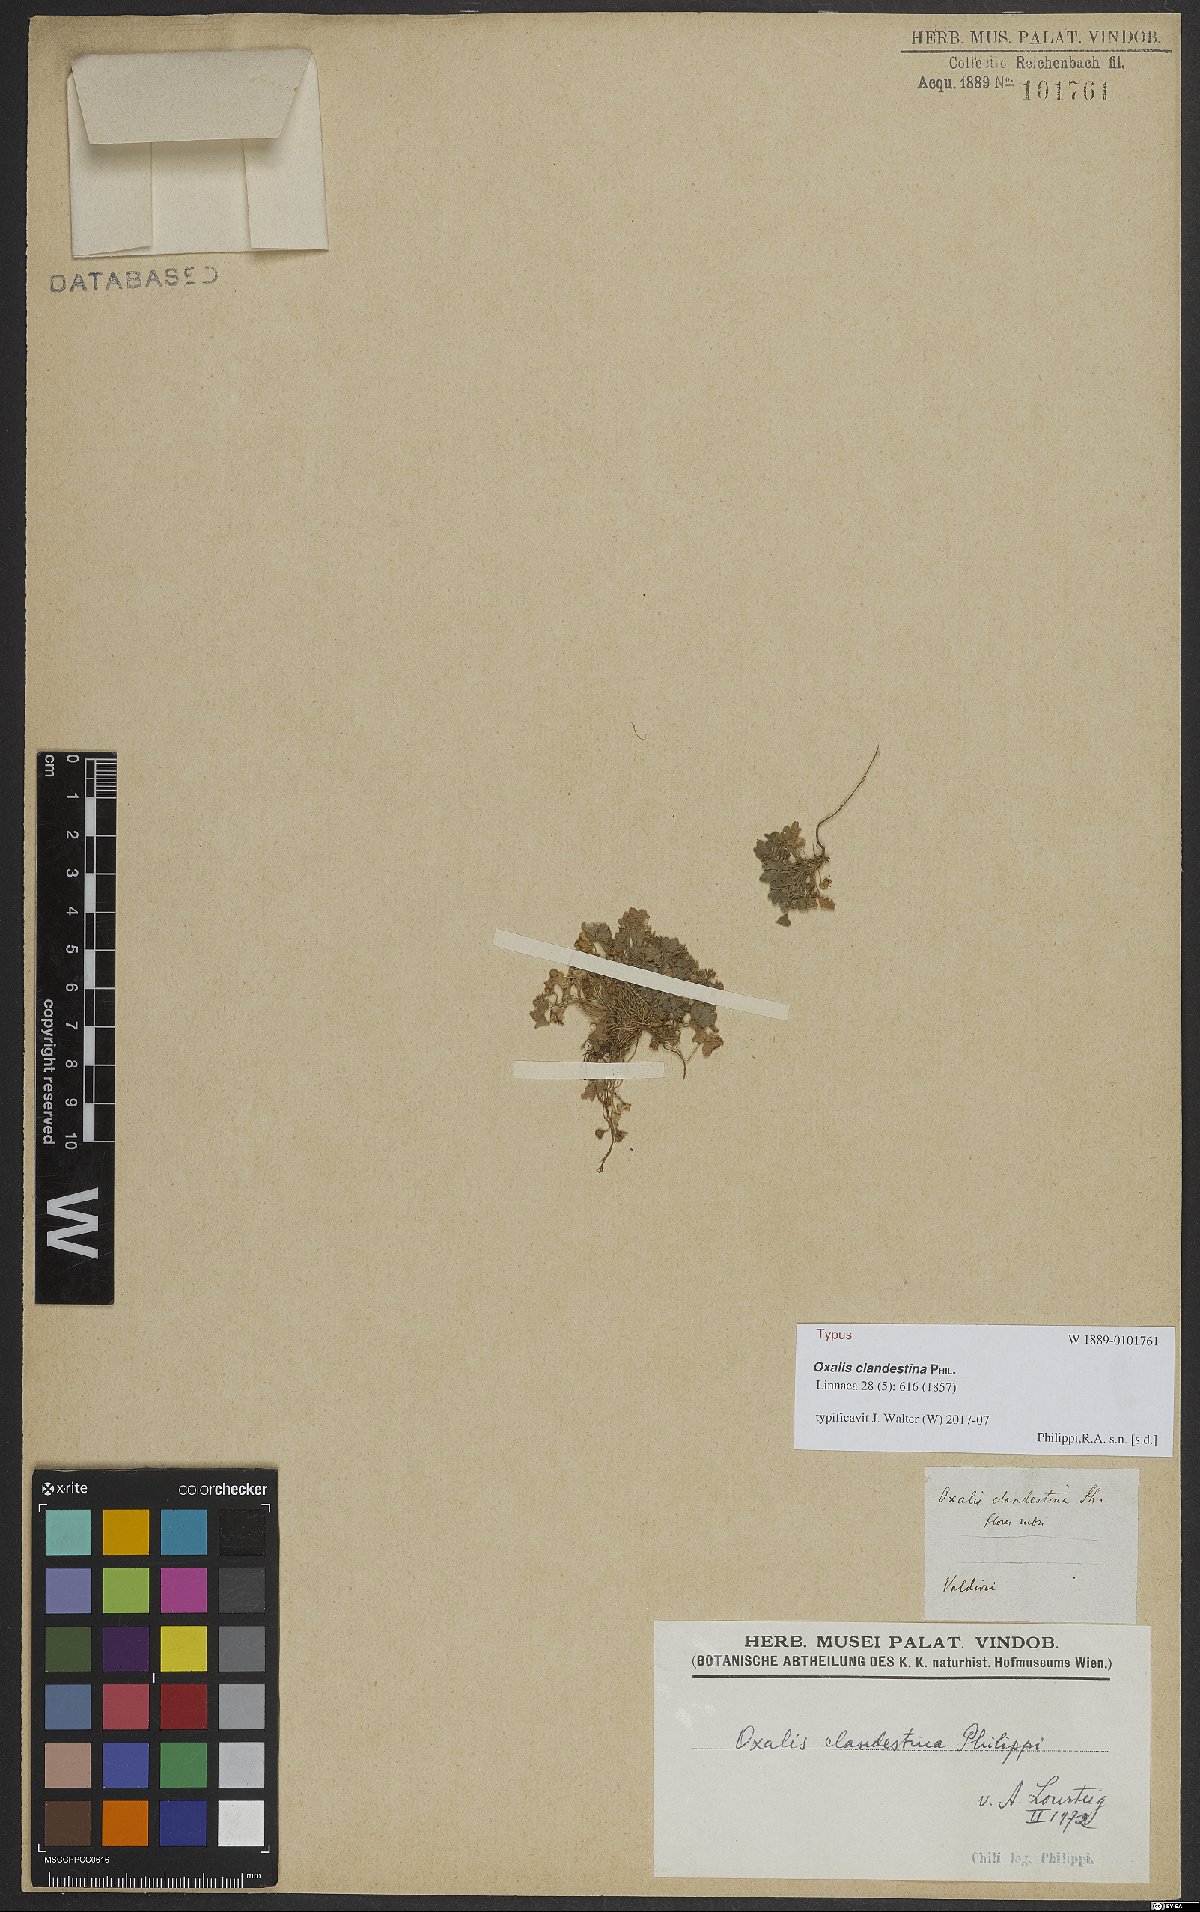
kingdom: Plantae
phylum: Tracheophyta
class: Magnoliopsida
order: Oxalidales
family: Oxalidaceae
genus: Oxalis
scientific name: Oxalis clandestina
